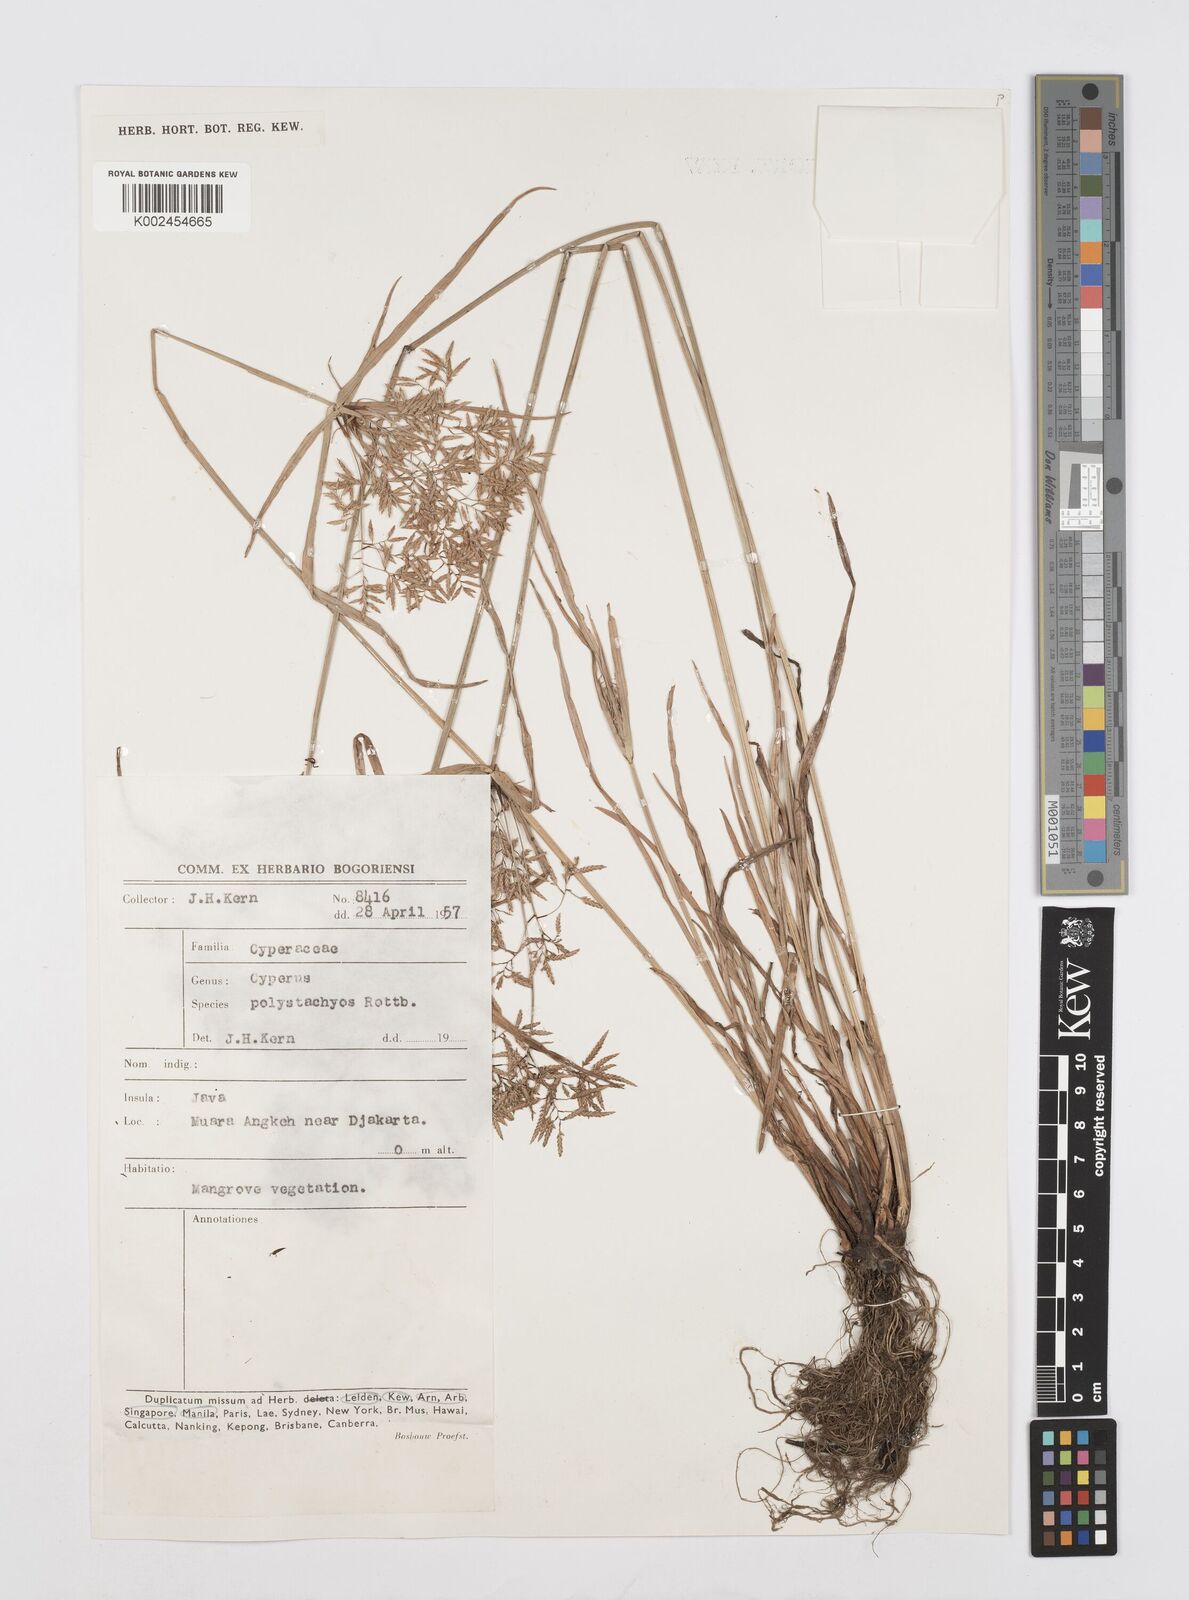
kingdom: Plantae
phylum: Tracheophyta
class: Liliopsida
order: Poales
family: Cyperaceae
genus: Cyperus
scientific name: Cyperus polystachyos
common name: Bunchy flat sedge
